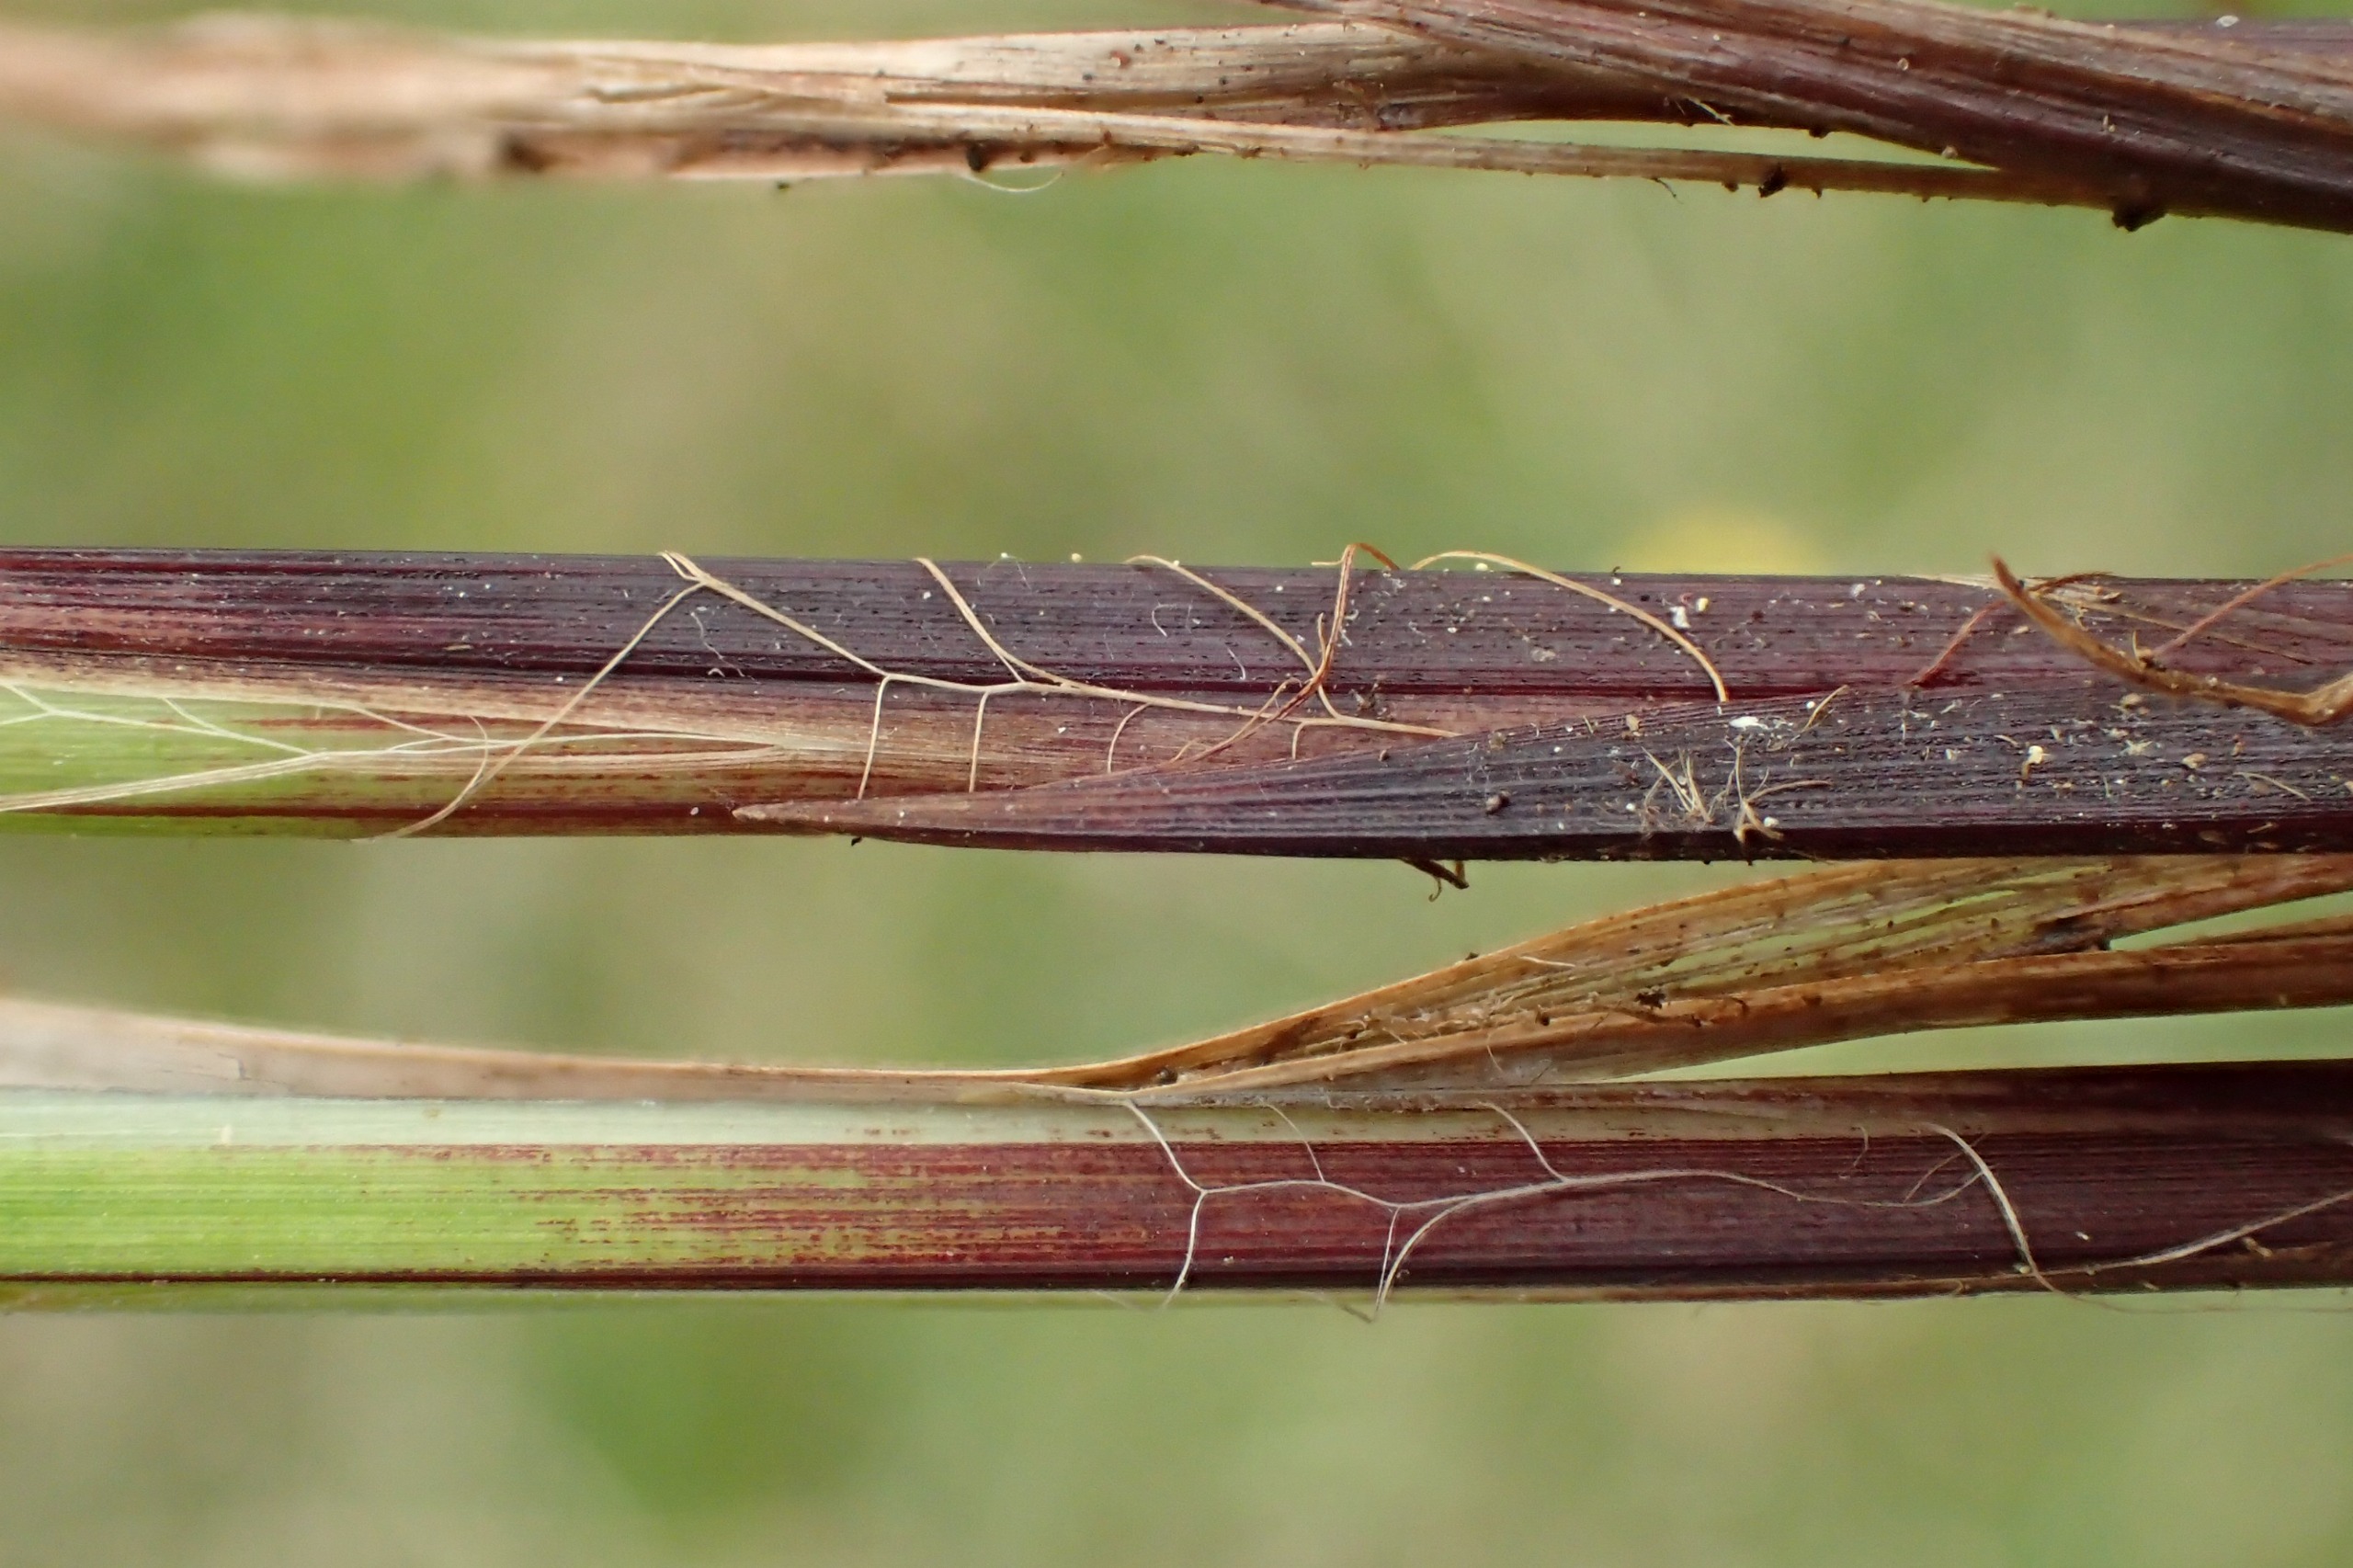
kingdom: Plantae
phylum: Tracheophyta
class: Liliopsida
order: Poales
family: Cyperaceae
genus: Carex
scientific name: Carex cespitosa
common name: Tue-star
